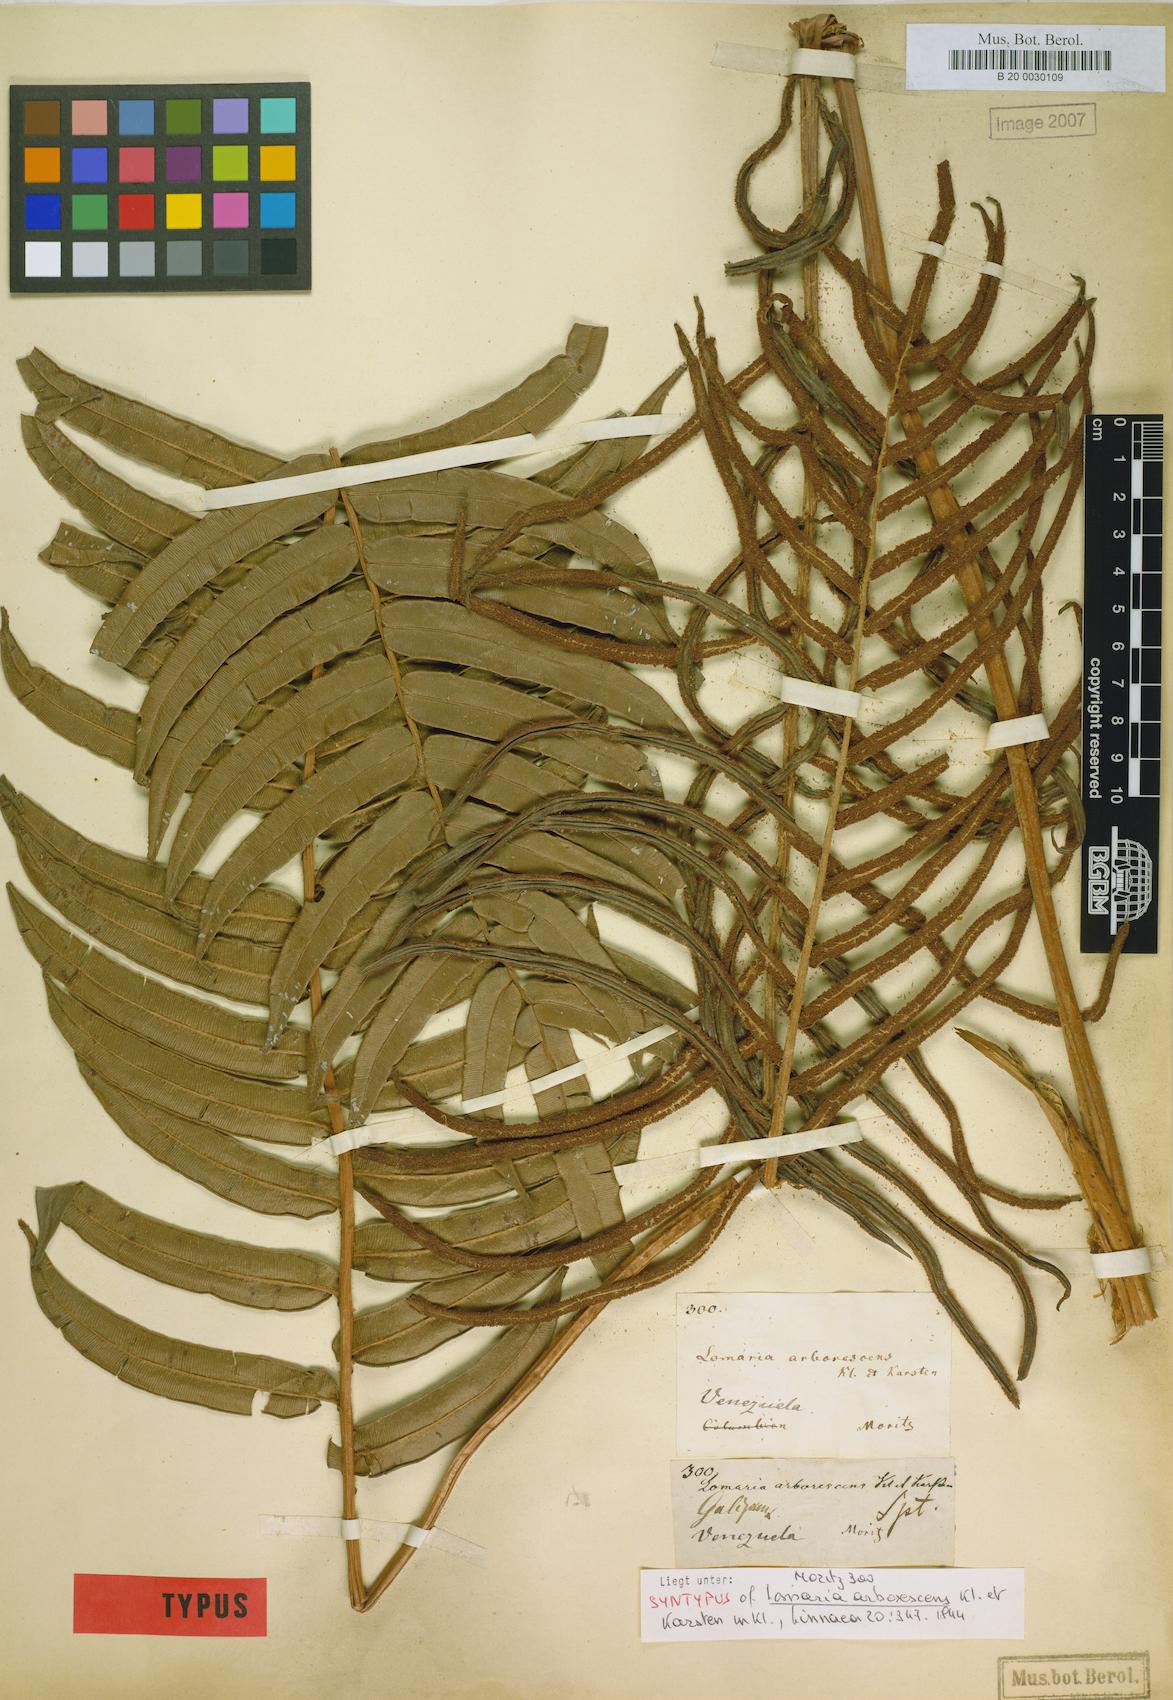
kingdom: Plantae
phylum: Tracheophyta
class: Polypodiopsida
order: Polypodiales
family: Blechnaceae
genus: Parablechnum
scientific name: Parablechnum cordatum
